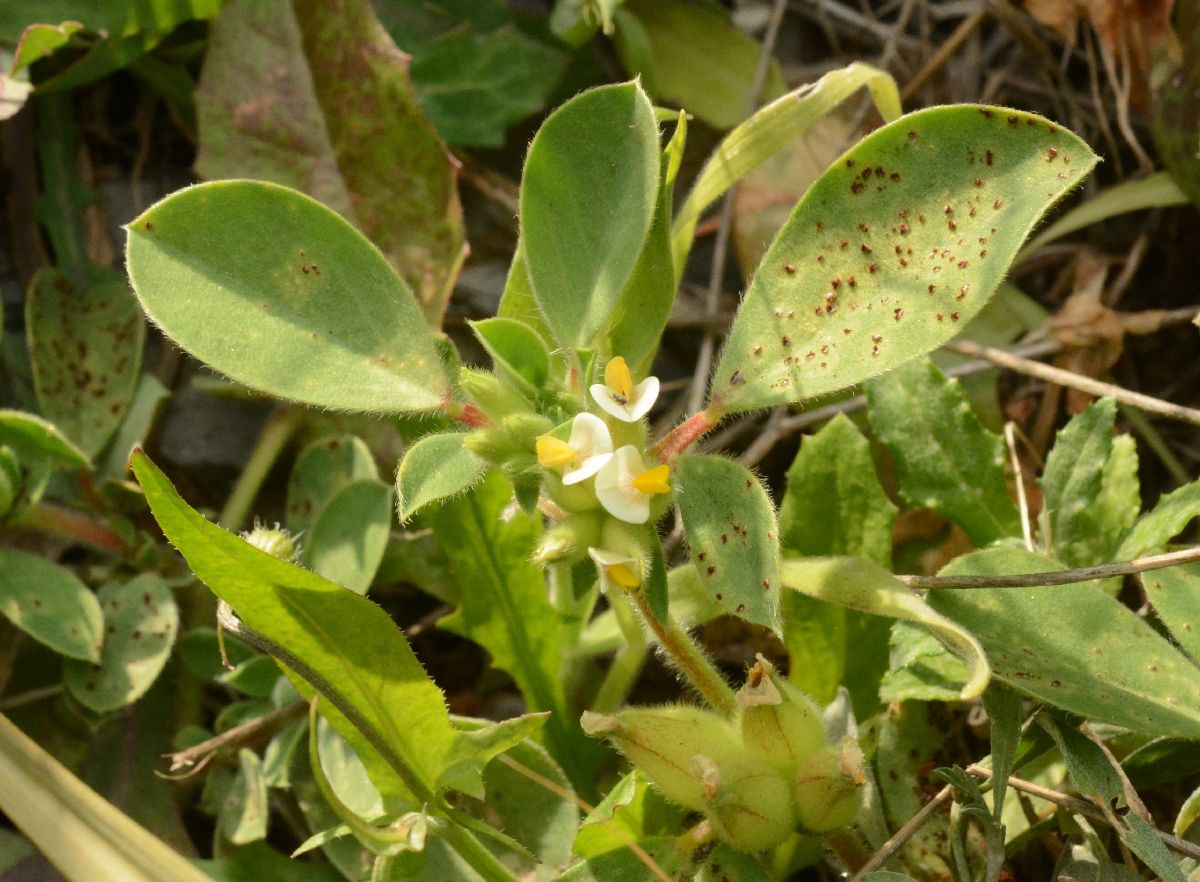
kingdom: Plantae
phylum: Tracheophyta
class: Magnoliopsida
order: Fabales
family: Fabaceae
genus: Tripodion
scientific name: Tripodion tetraphyllum
